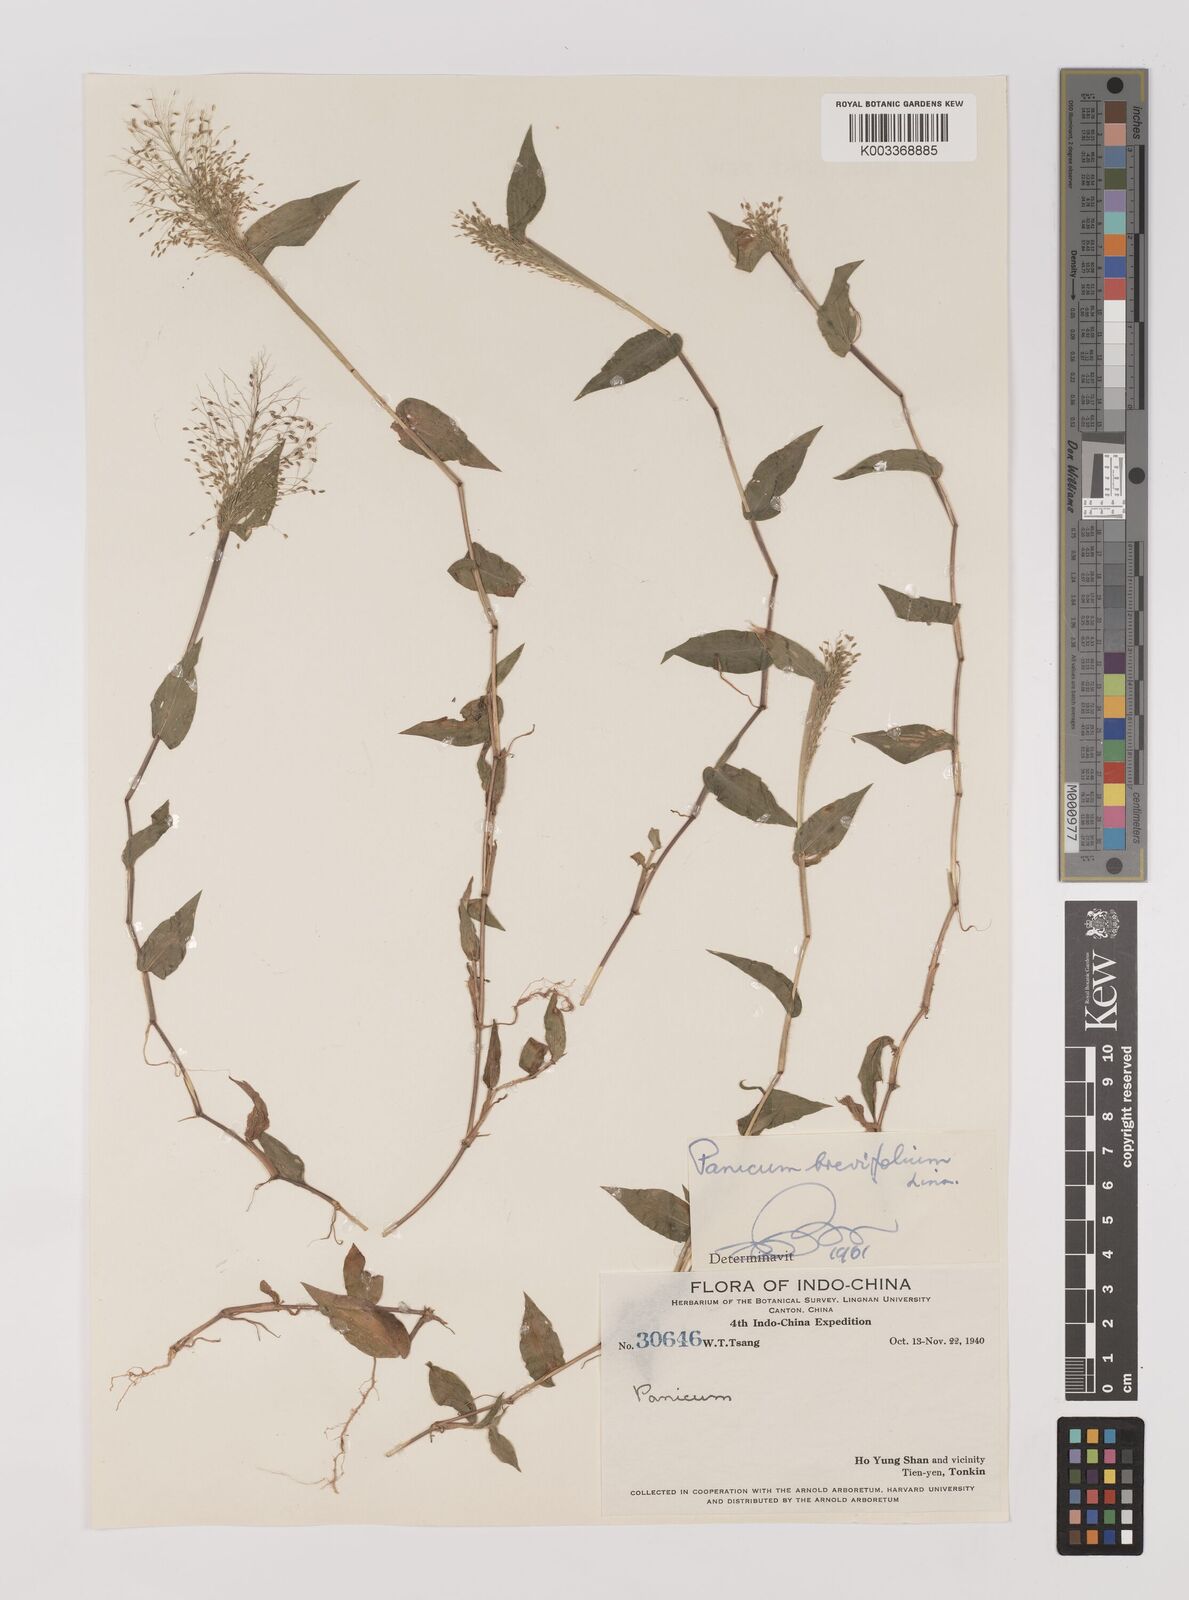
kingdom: Plantae
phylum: Tracheophyta
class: Liliopsida
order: Poales
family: Poaceae
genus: Panicum
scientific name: Panicum brevifolium
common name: Shortleaf panic grass
